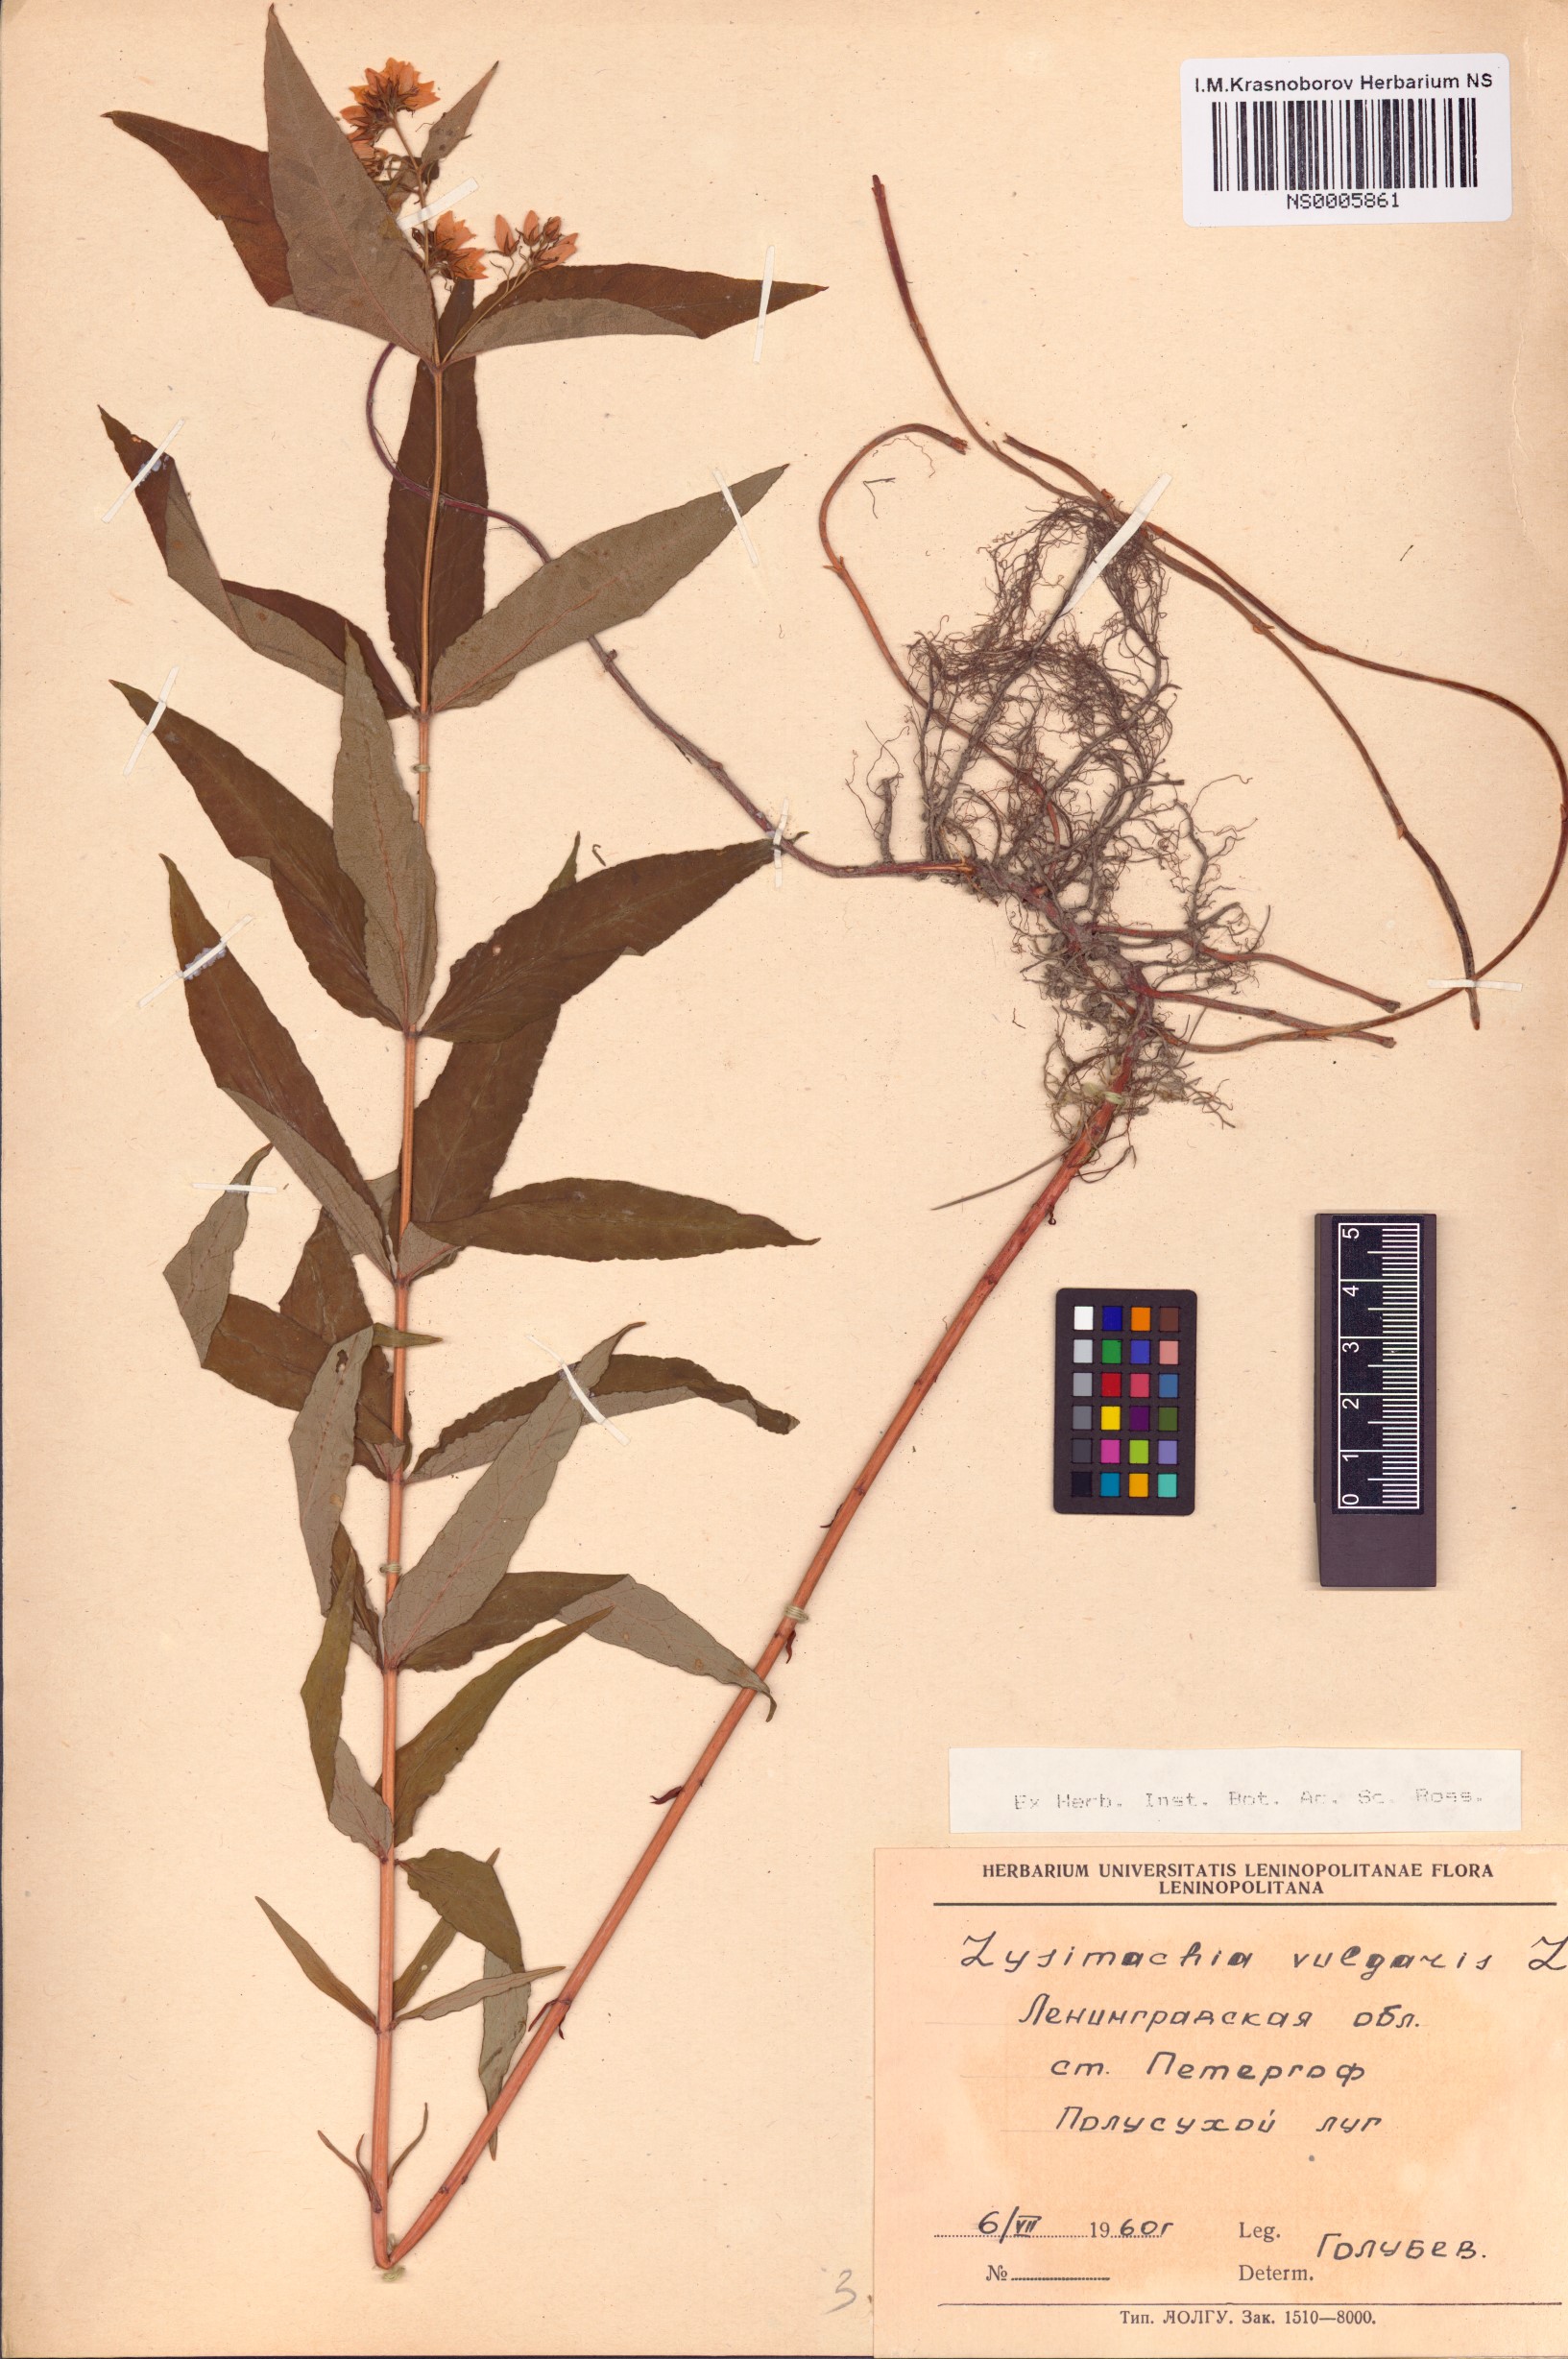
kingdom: Plantae
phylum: Tracheophyta
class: Magnoliopsida
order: Ericales
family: Primulaceae
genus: Lysimachia
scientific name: Lysimachia vulgaris
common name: Yellow loosestrife
